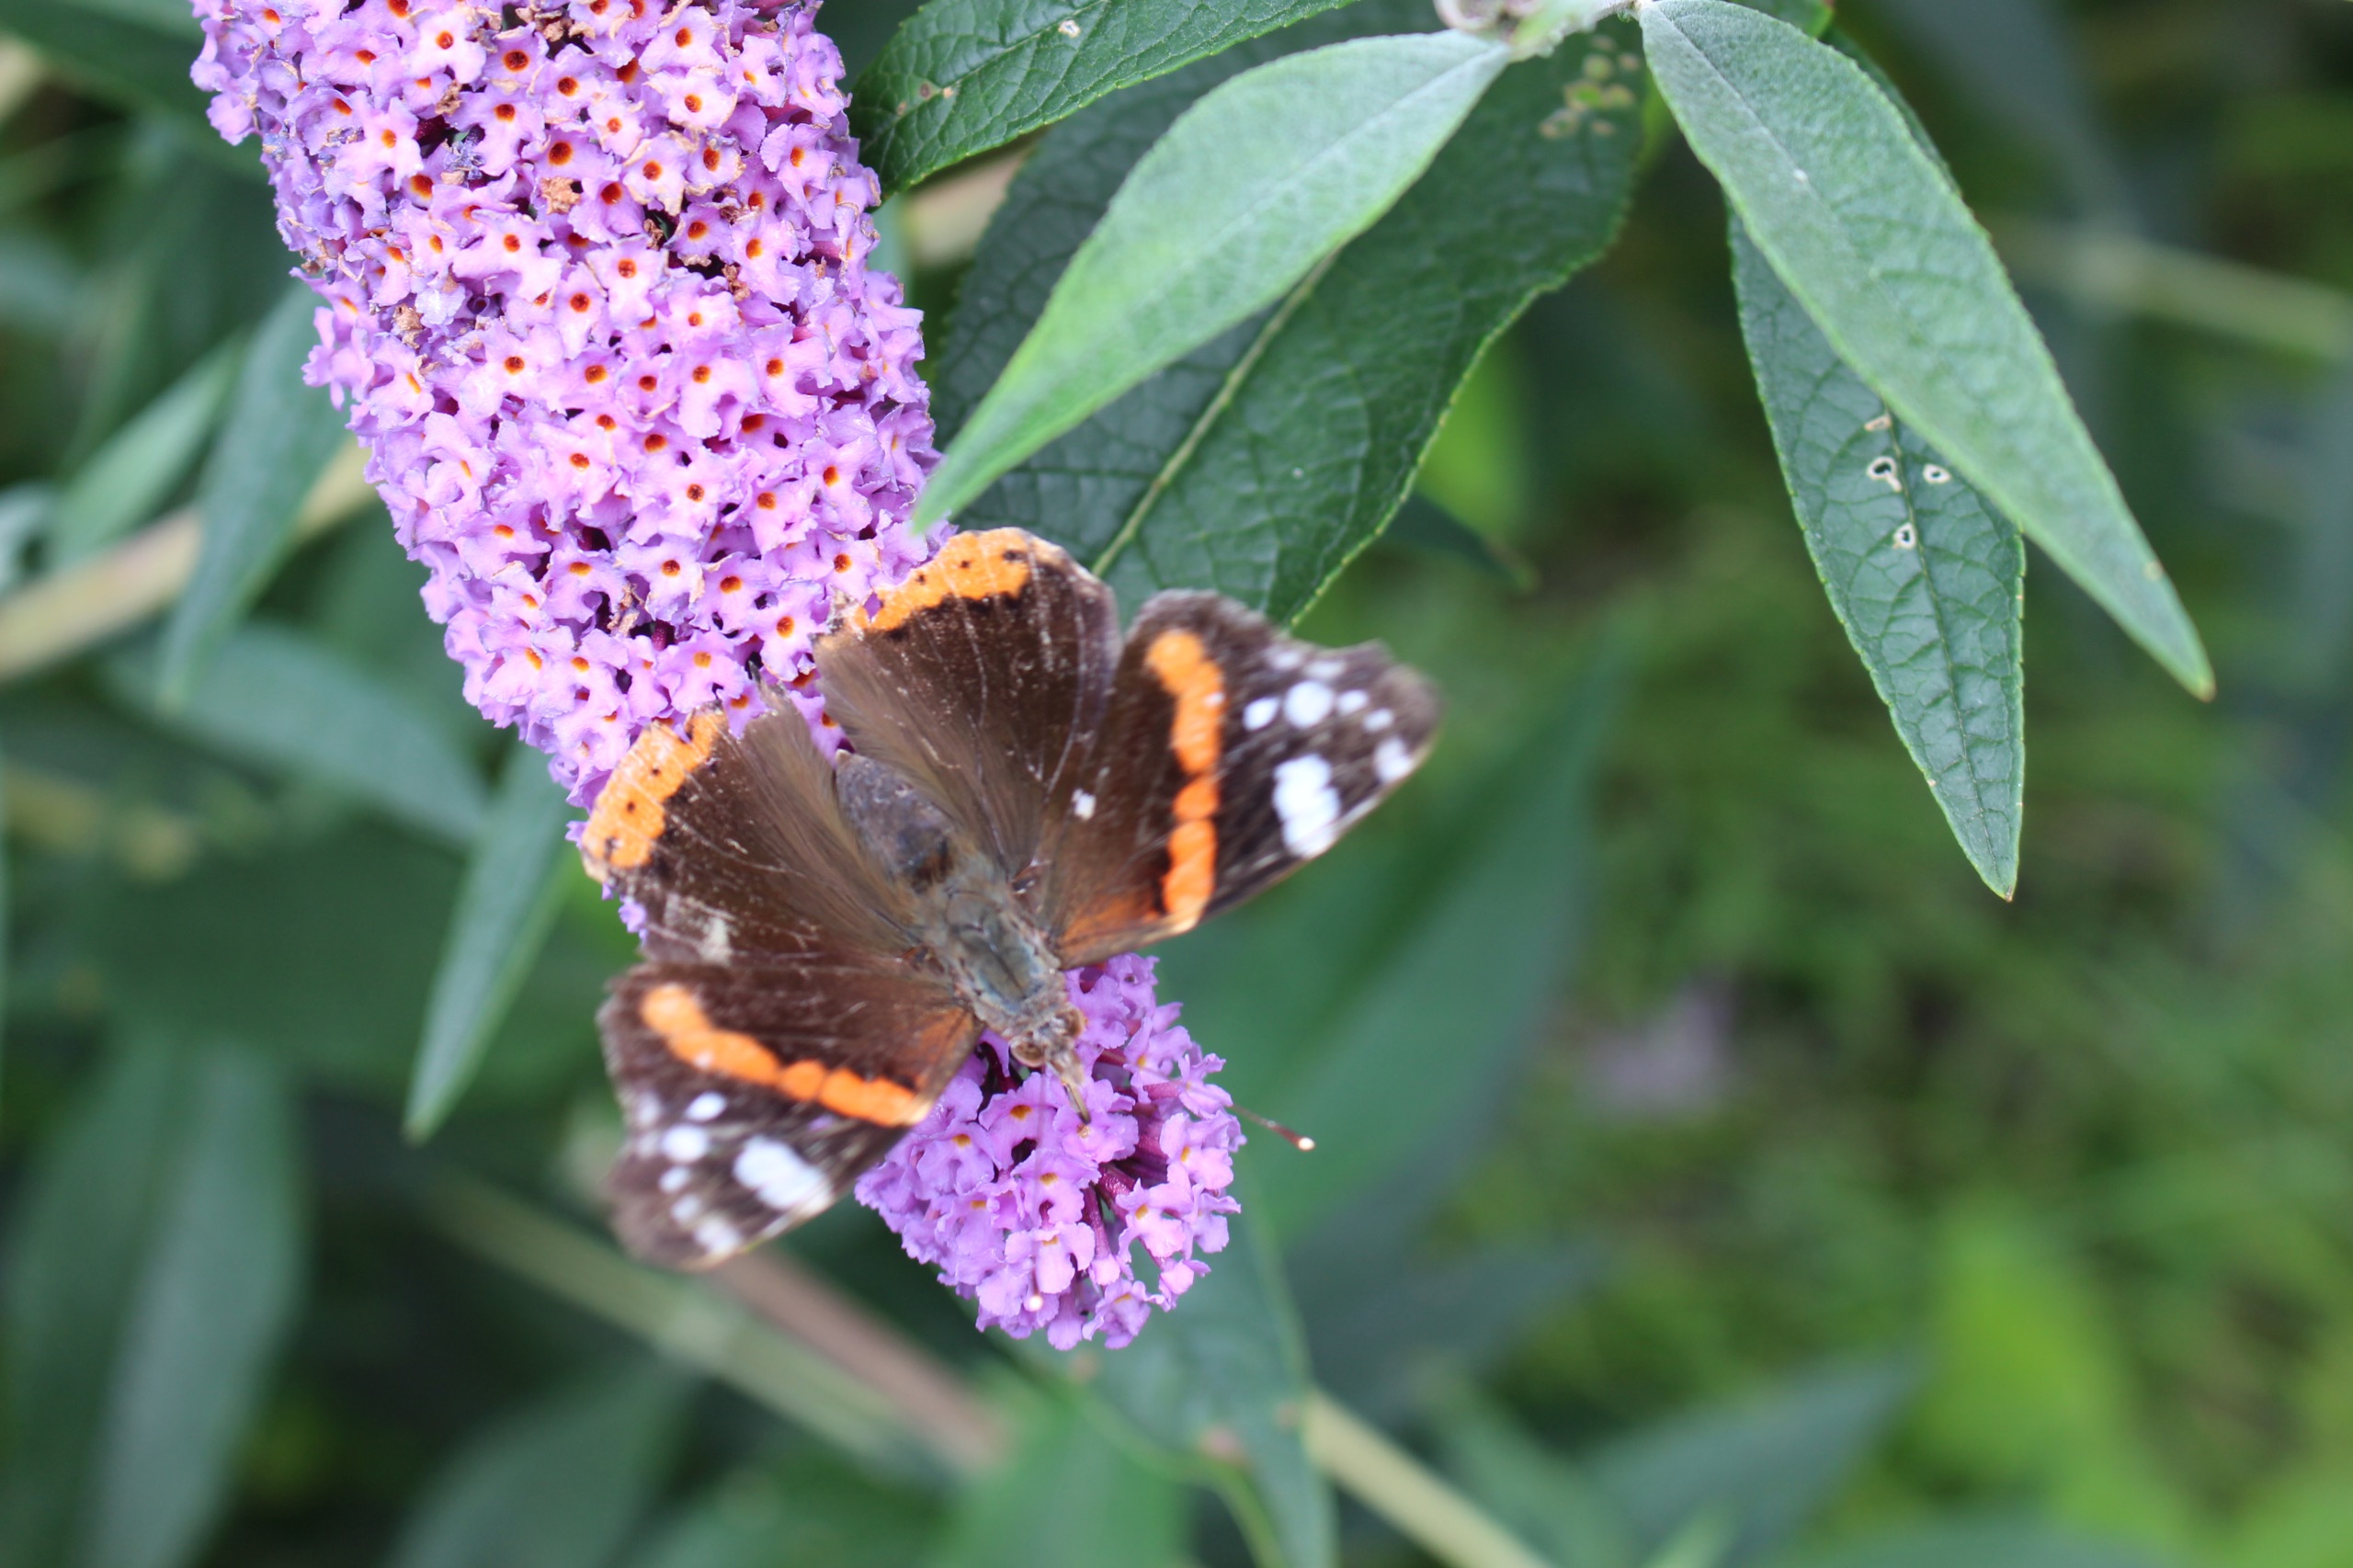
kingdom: Animalia
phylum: Arthropoda
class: Insecta
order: Lepidoptera
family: Nymphalidae
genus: Vanessa
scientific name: Vanessa atalanta
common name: Admiral
